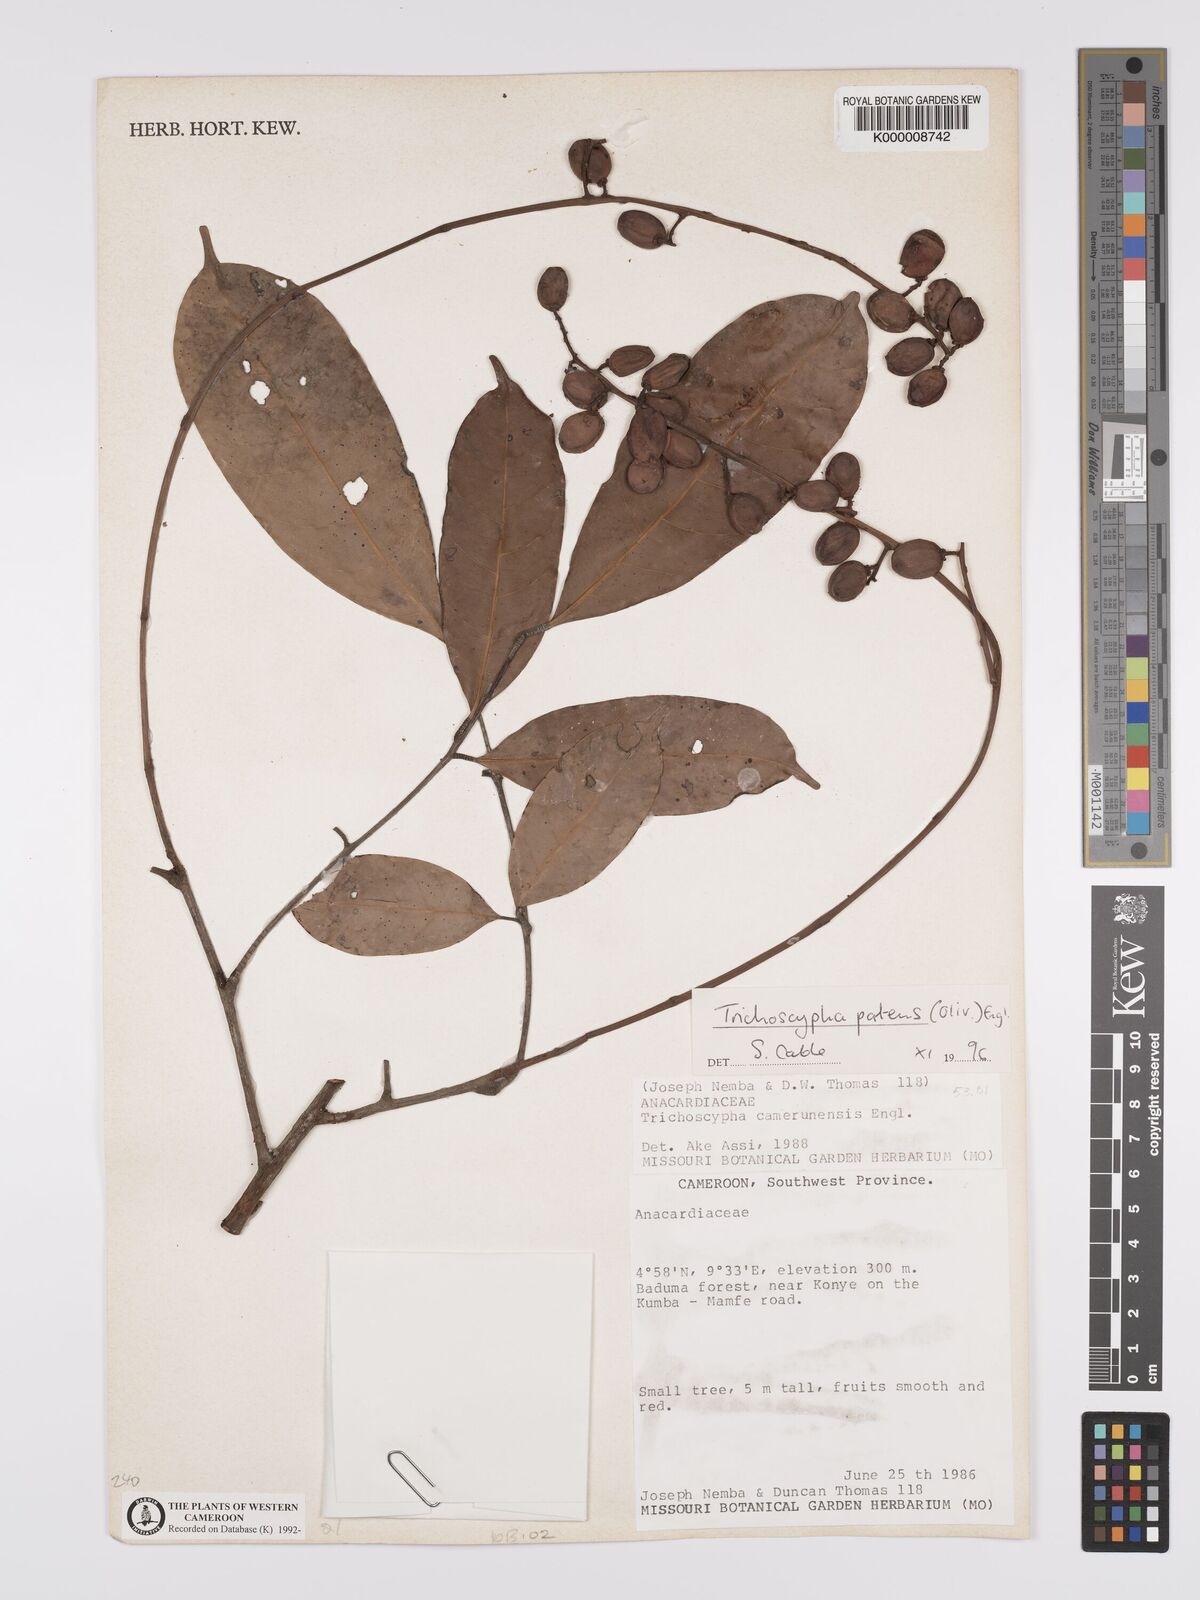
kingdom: Plantae
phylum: Tracheophyta
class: Magnoliopsida
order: Sapindales
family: Anacardiaceae
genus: Trichoscypha
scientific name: Trichoscypha patens
